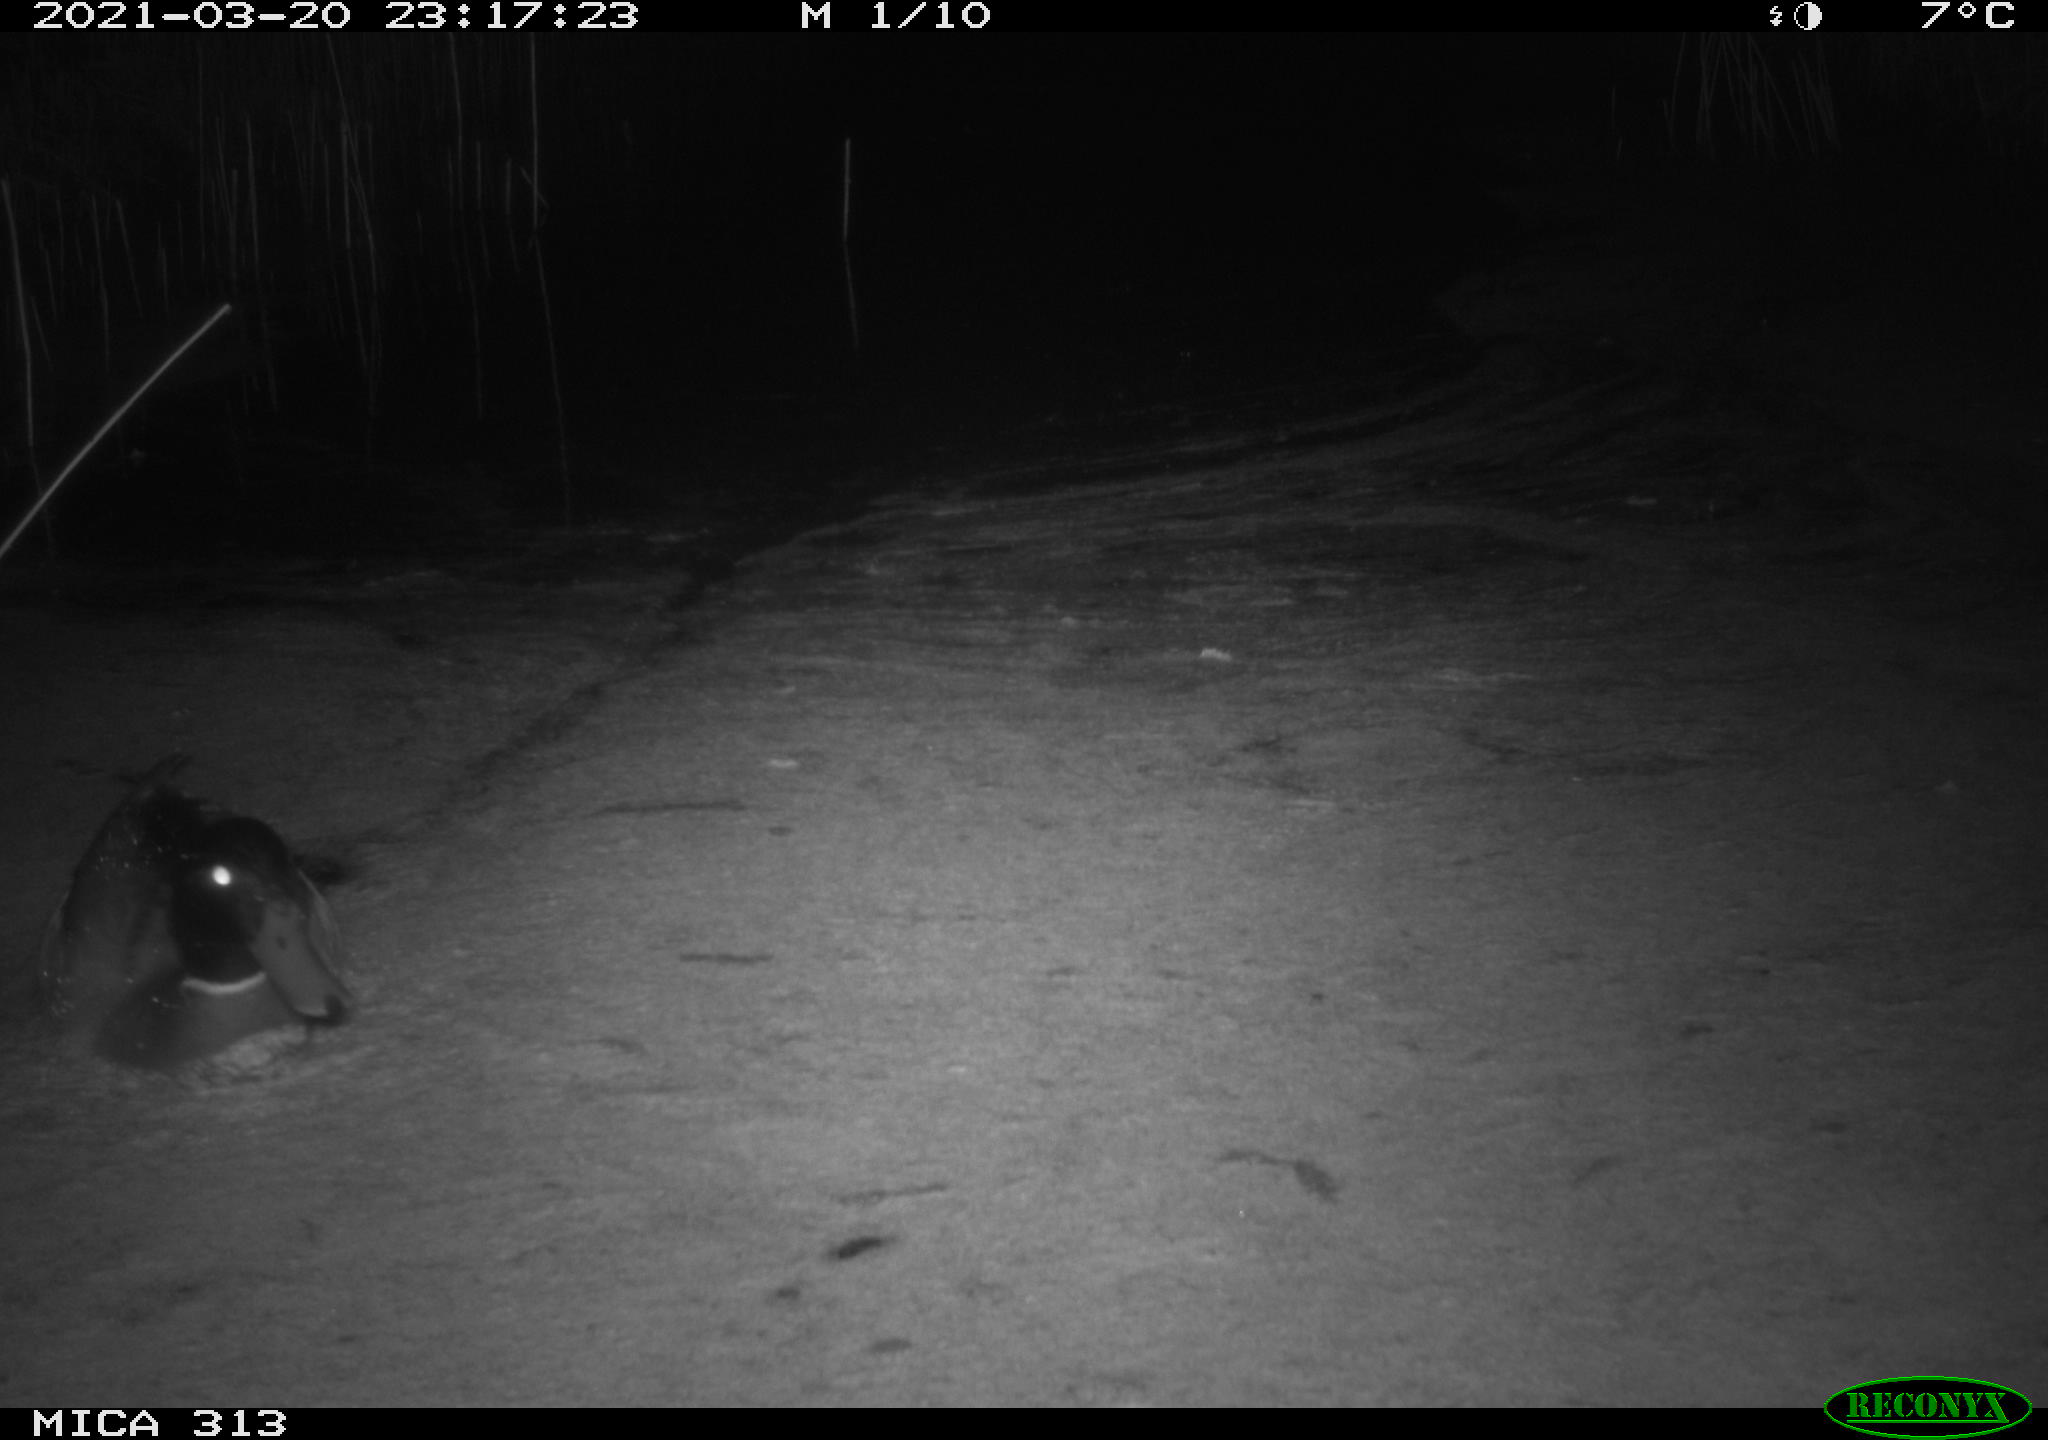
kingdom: Animalia
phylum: Chordata
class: Aves
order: Anseriformes
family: Anatidae
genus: Anas
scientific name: Anas platyrhynchos
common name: Mallard
